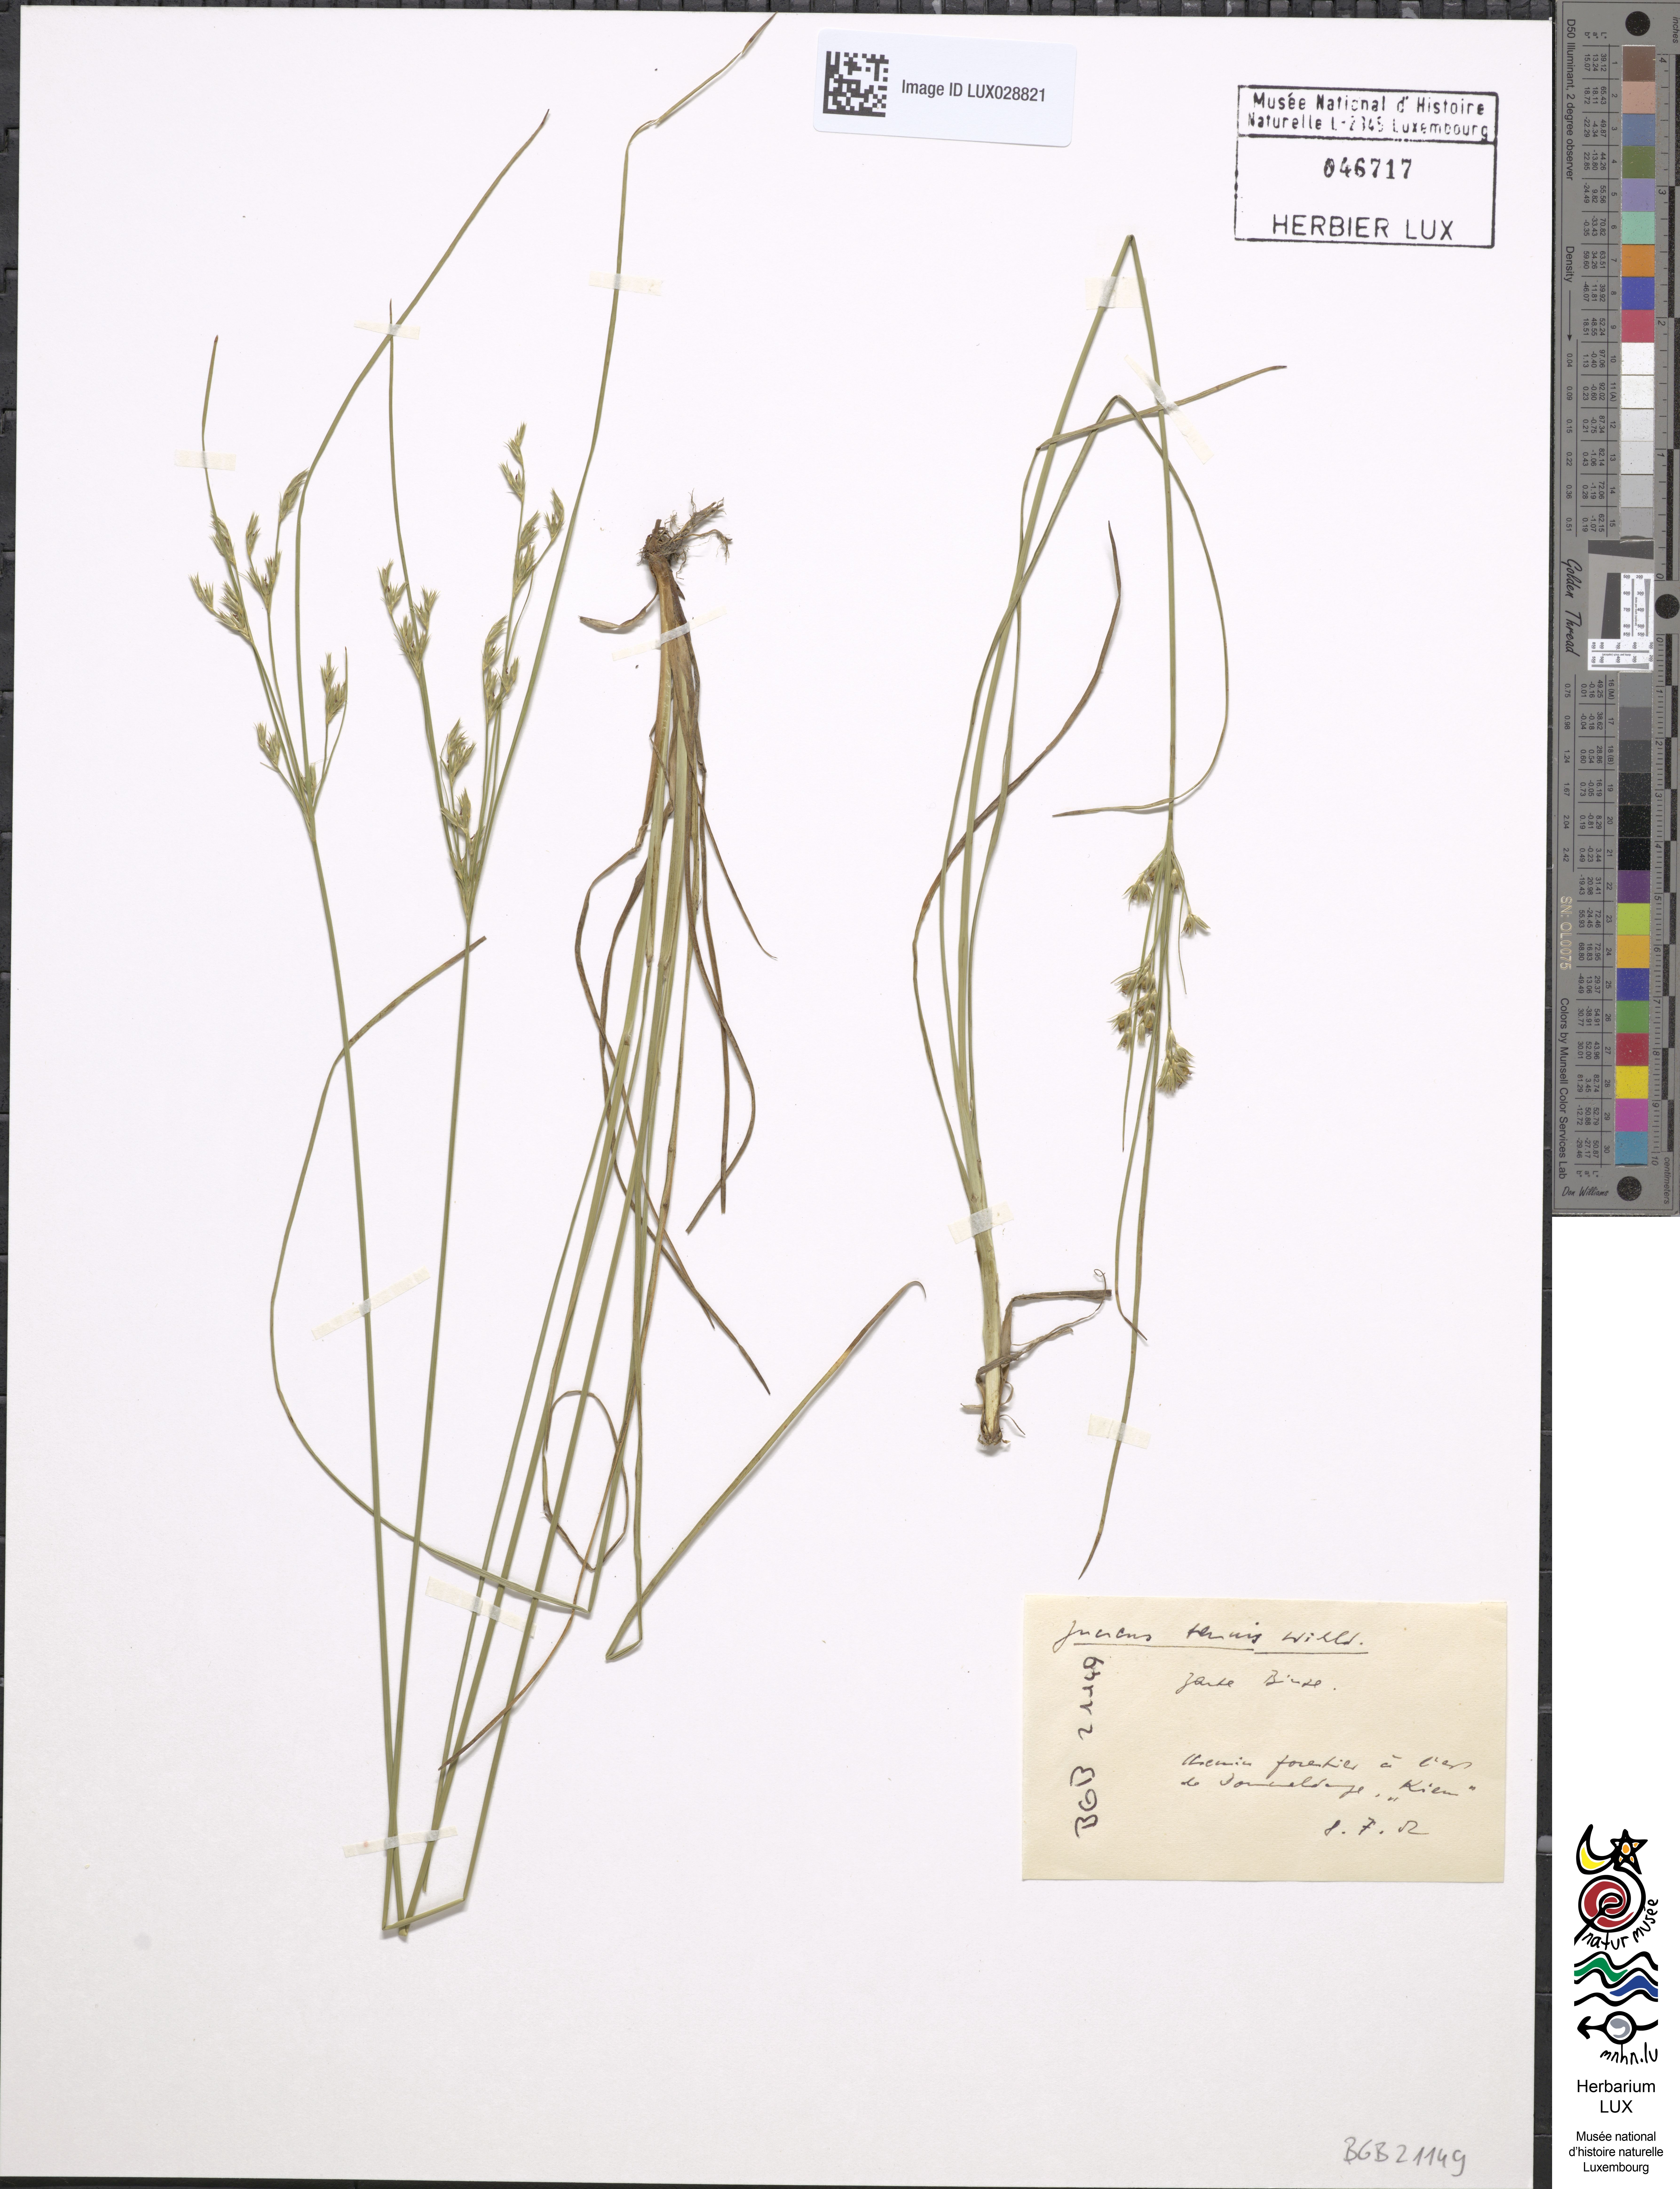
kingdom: Plantae
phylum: Tracheophyta
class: Liliopsida
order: Poales
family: Juncaceae
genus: Juncus
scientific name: Juncus tenuis
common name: Slender rush
